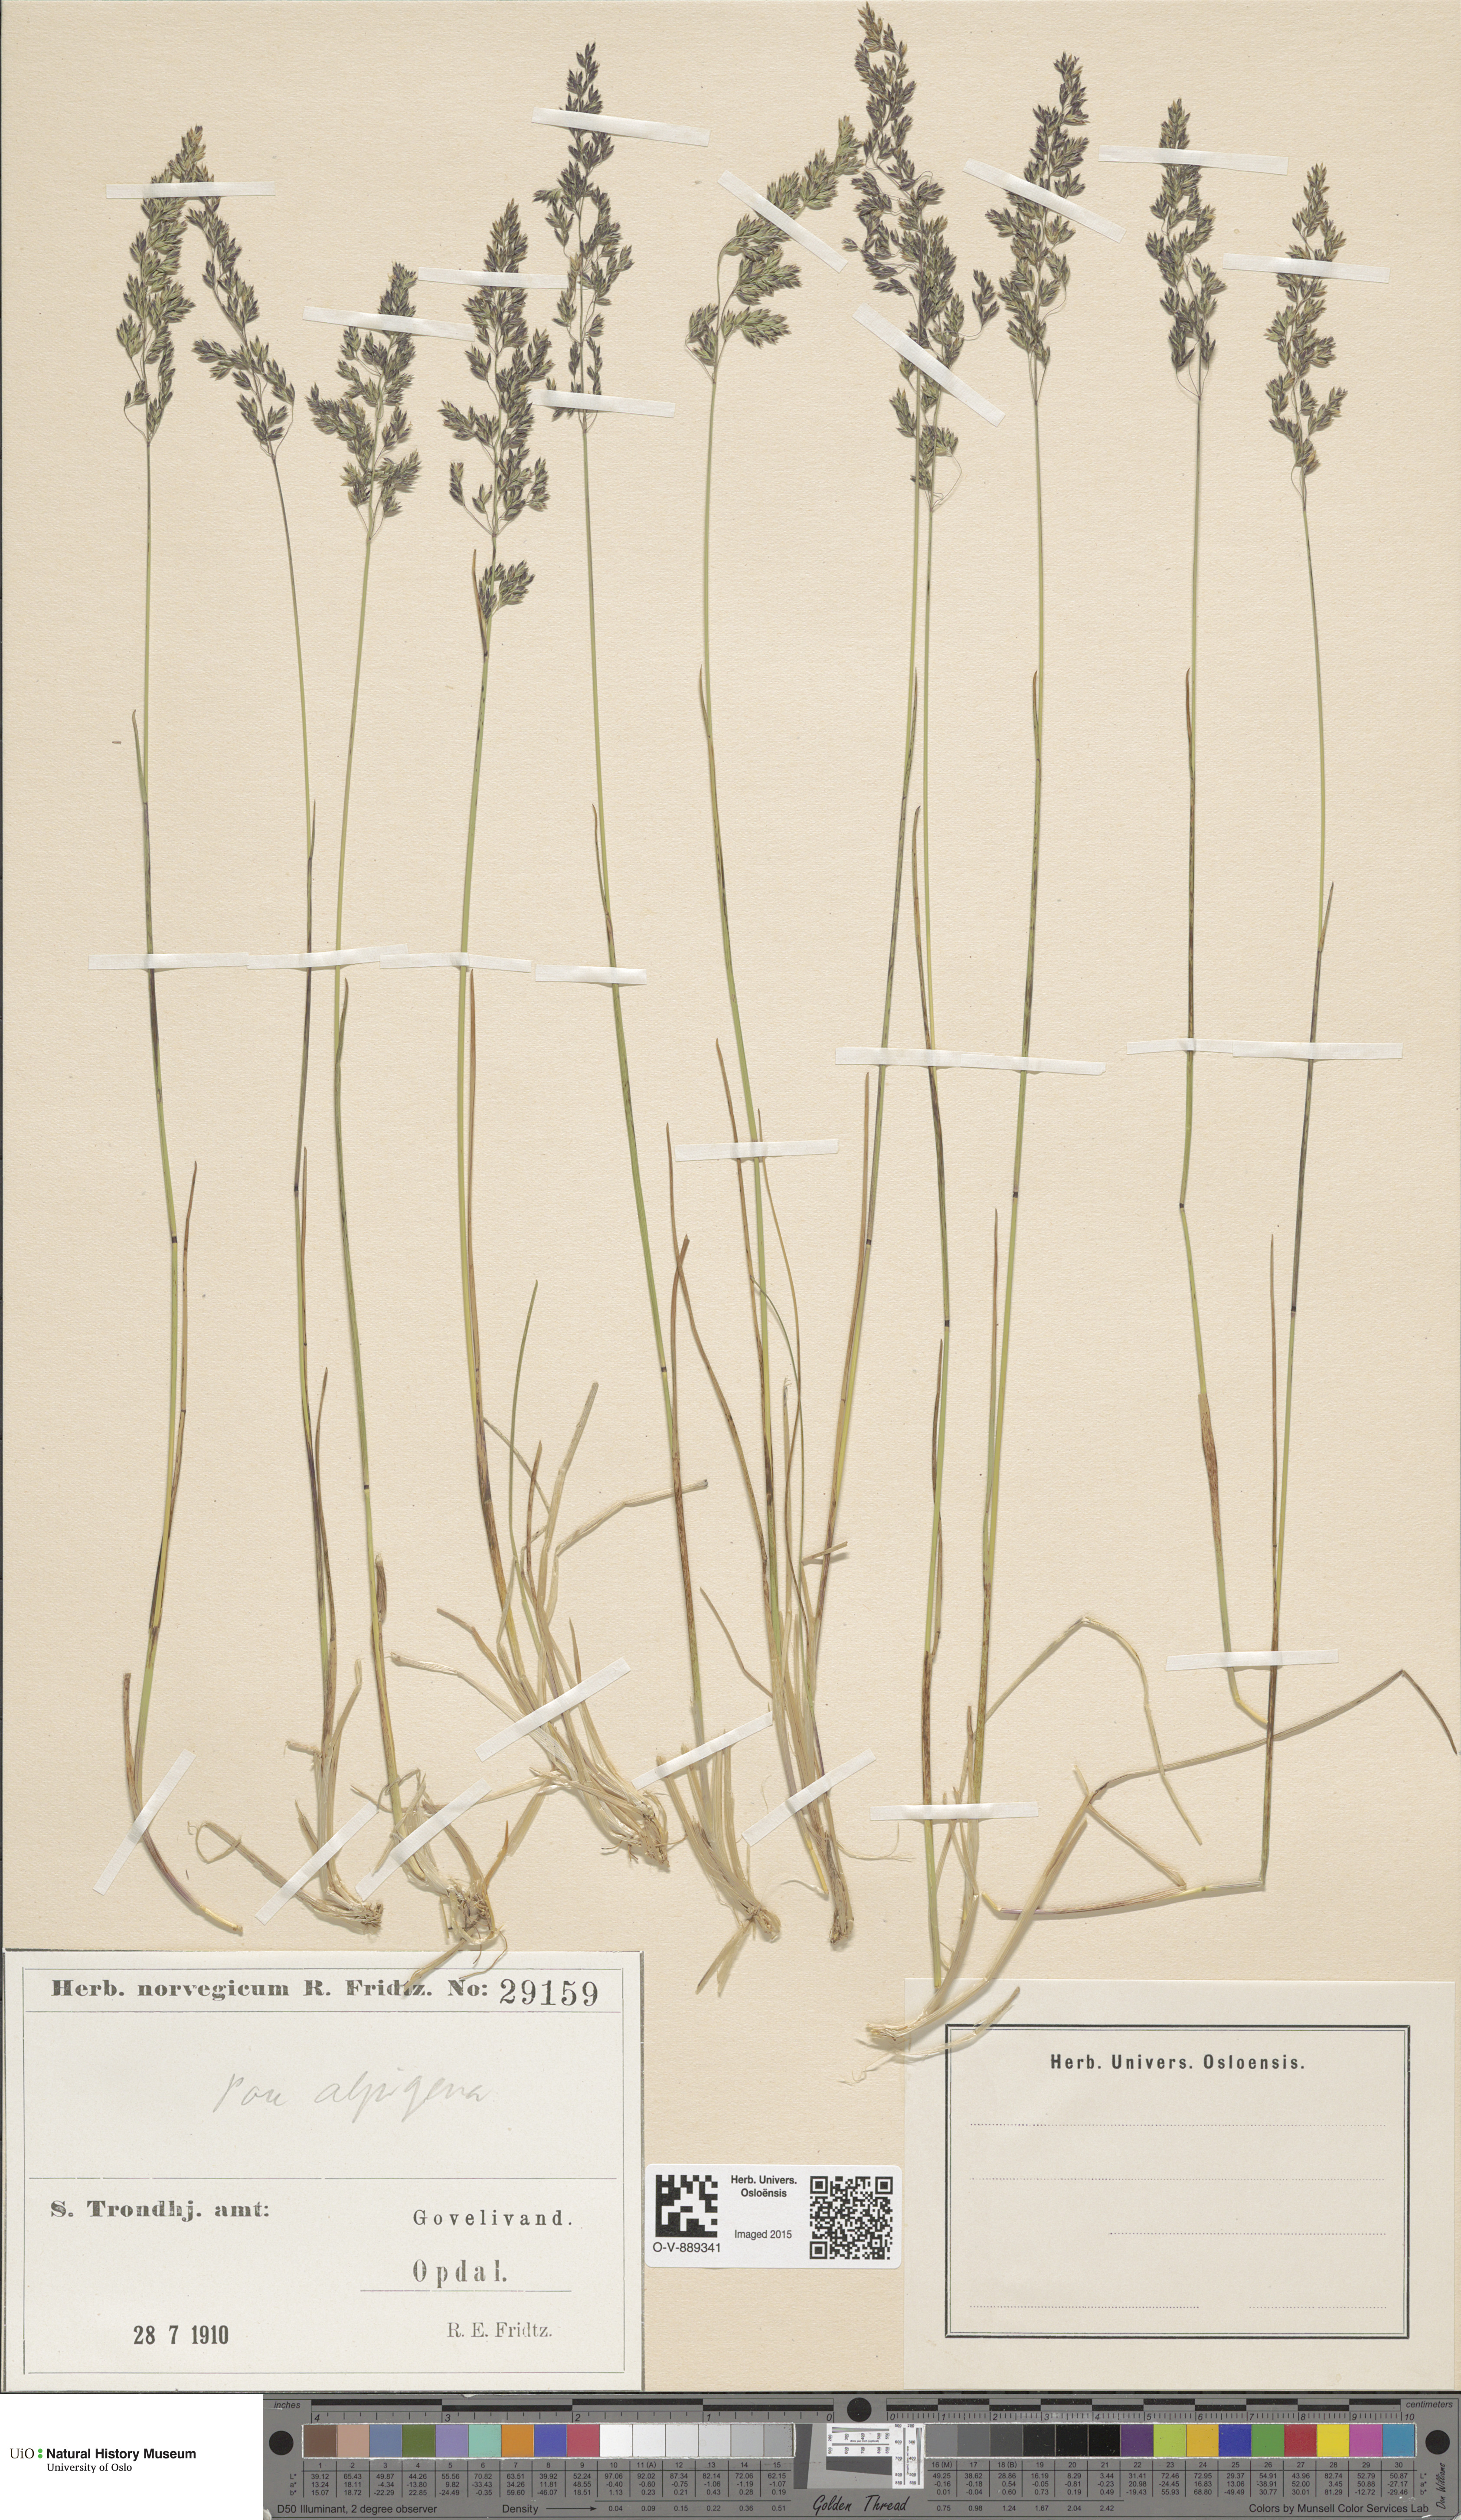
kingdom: Plantae
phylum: Tracheophyta
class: Liliopsida
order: Poales
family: Poaceae
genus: Poa
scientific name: Poa alpigena
